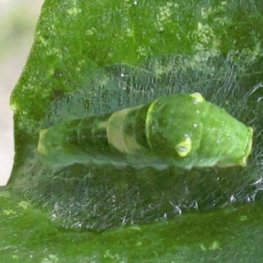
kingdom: Animalia
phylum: Arthropoda
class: Insecta
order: Lepidoptera
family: Papilionidae
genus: Pterourus
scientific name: Pterourus glaucus
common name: Eastern Tiger Swallowtail
